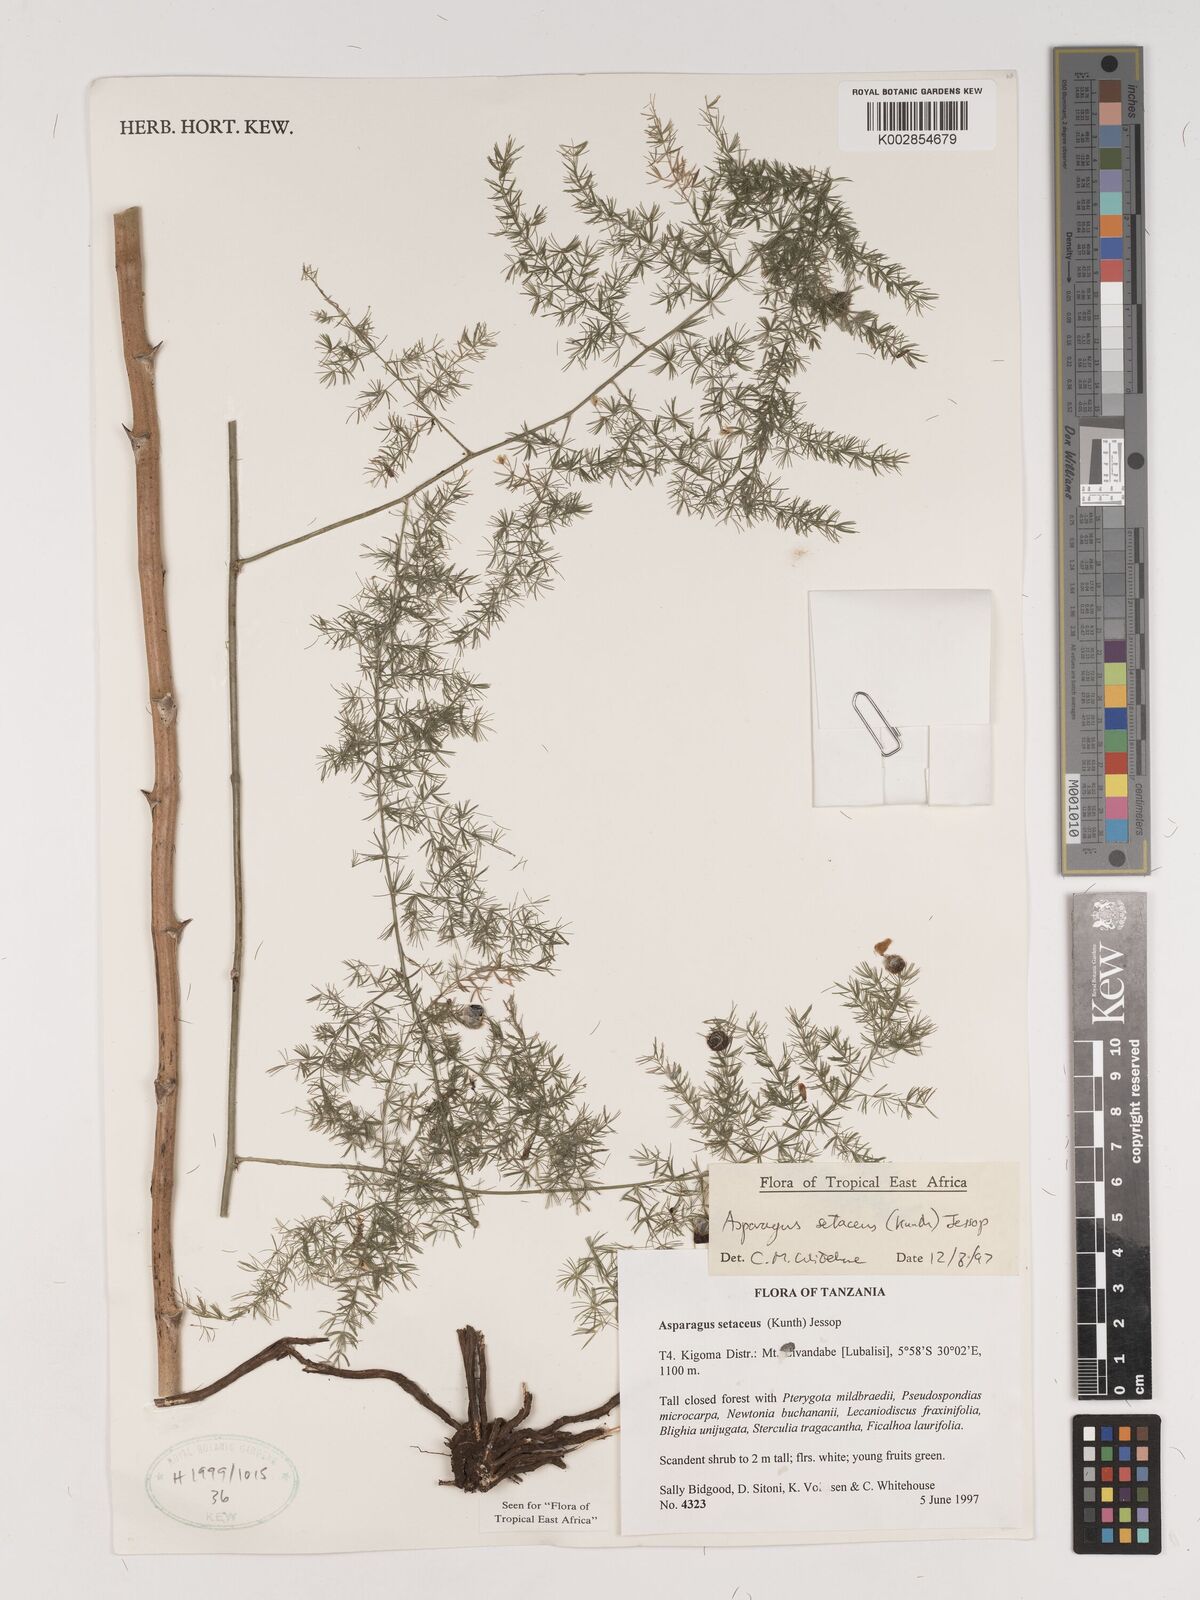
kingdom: Plantae
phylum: Tracheophyta
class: Liliopsida
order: Asparagales
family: Asparagaceae
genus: Asparagus
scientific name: Asparagus setaceus
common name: Common asparagus fern
